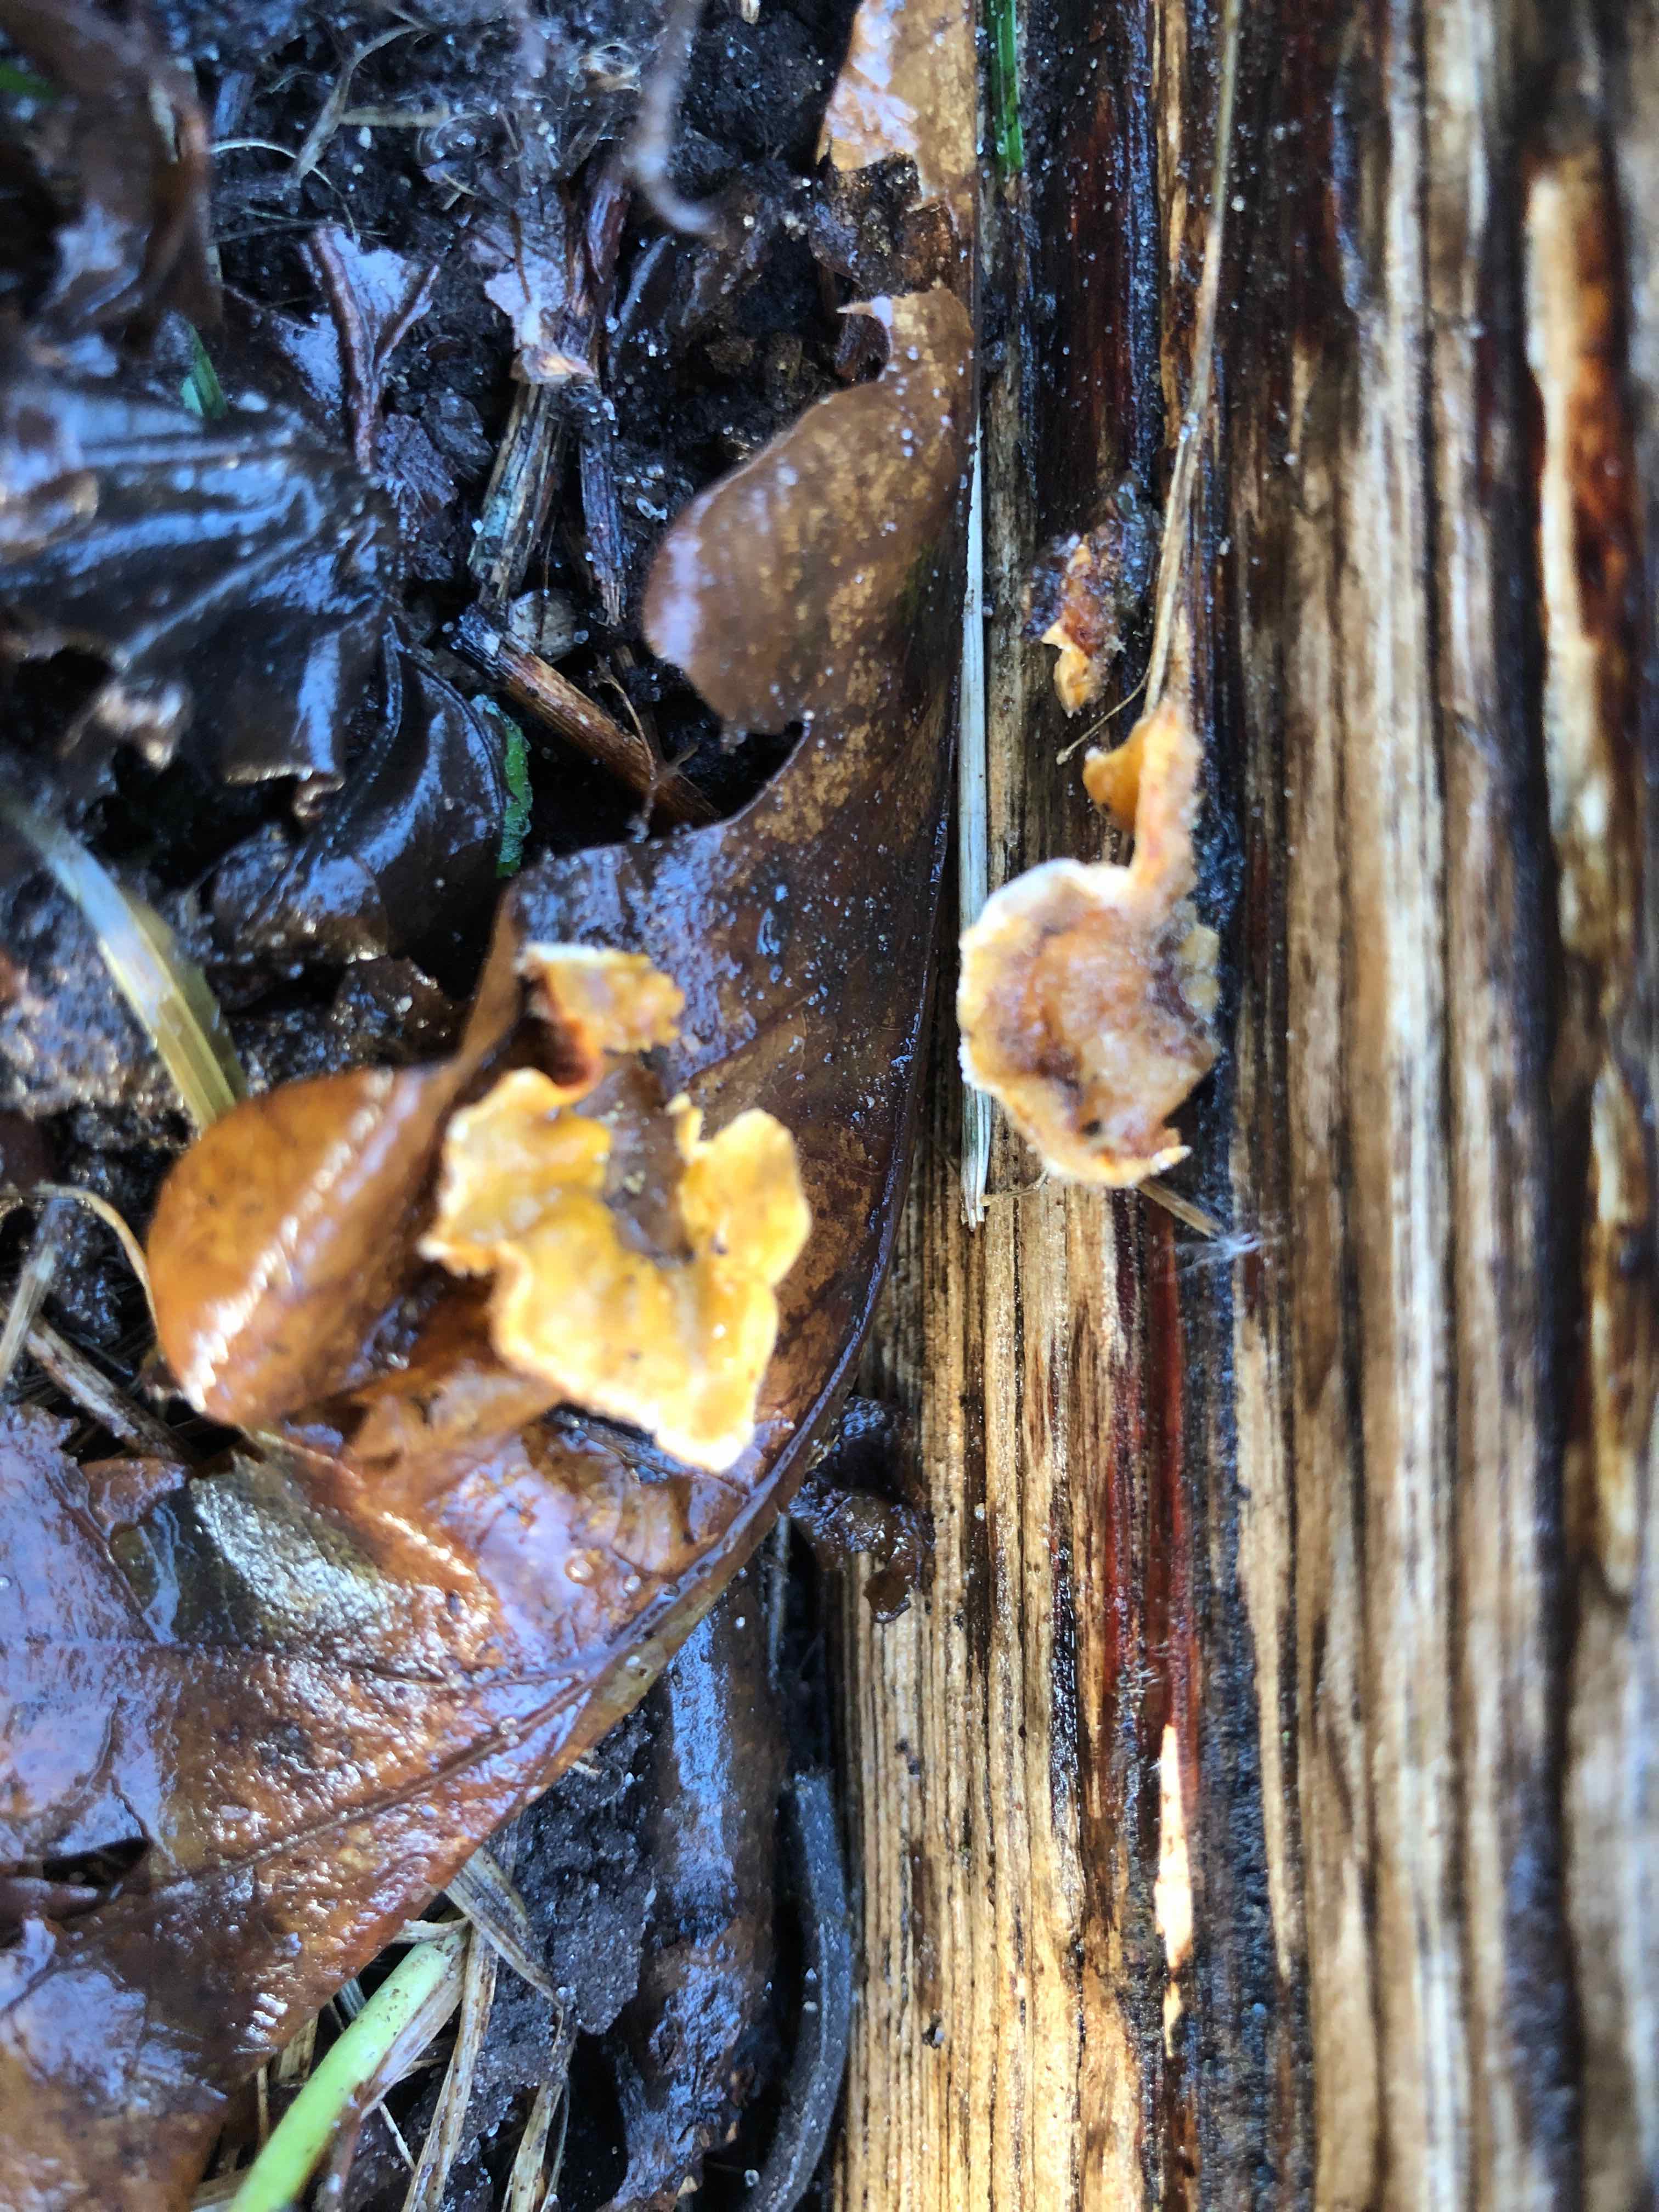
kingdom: Fungi
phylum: Basidiomycota
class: Agaricomycetes
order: Russulales
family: Stereaceae
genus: Stereum
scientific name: Stereum hirsutum
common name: håret lædersvamp
